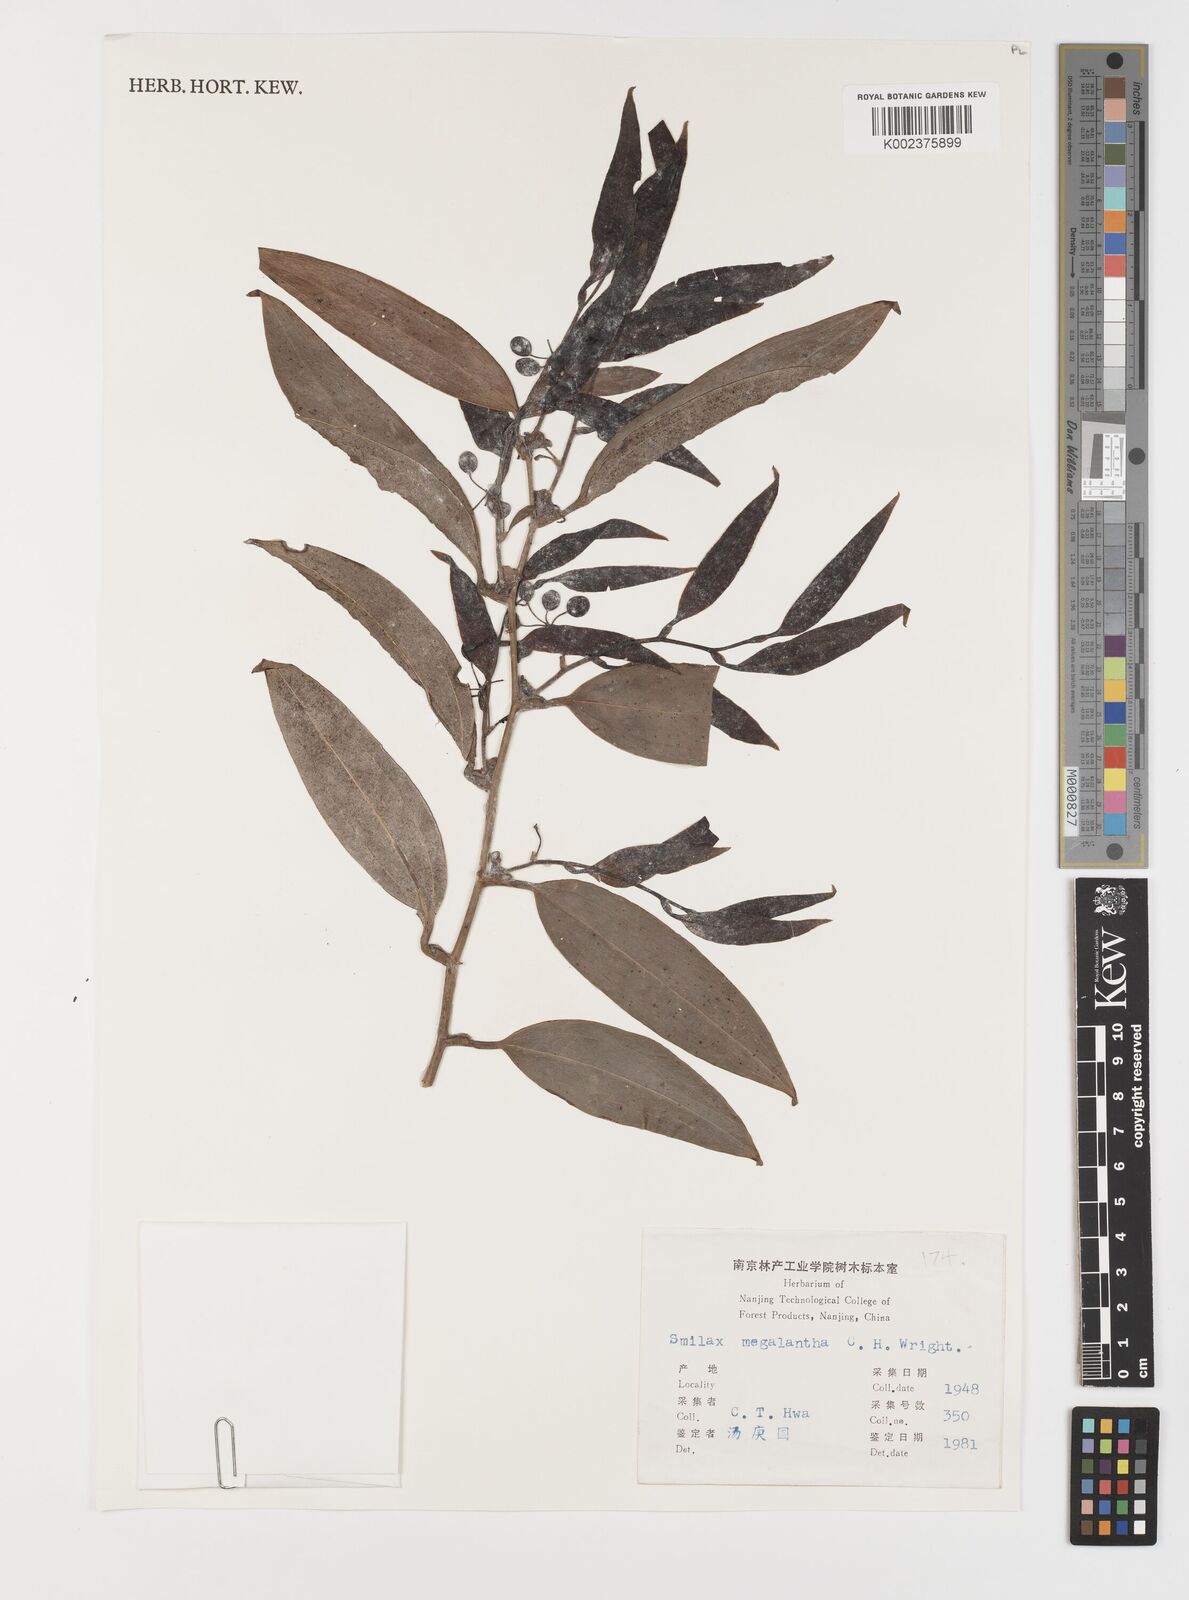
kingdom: Plantae
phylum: Tracheophyta
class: Liliopsida
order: Liliales
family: Smilacaceae
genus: Smilax
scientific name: Smilax megalantha
